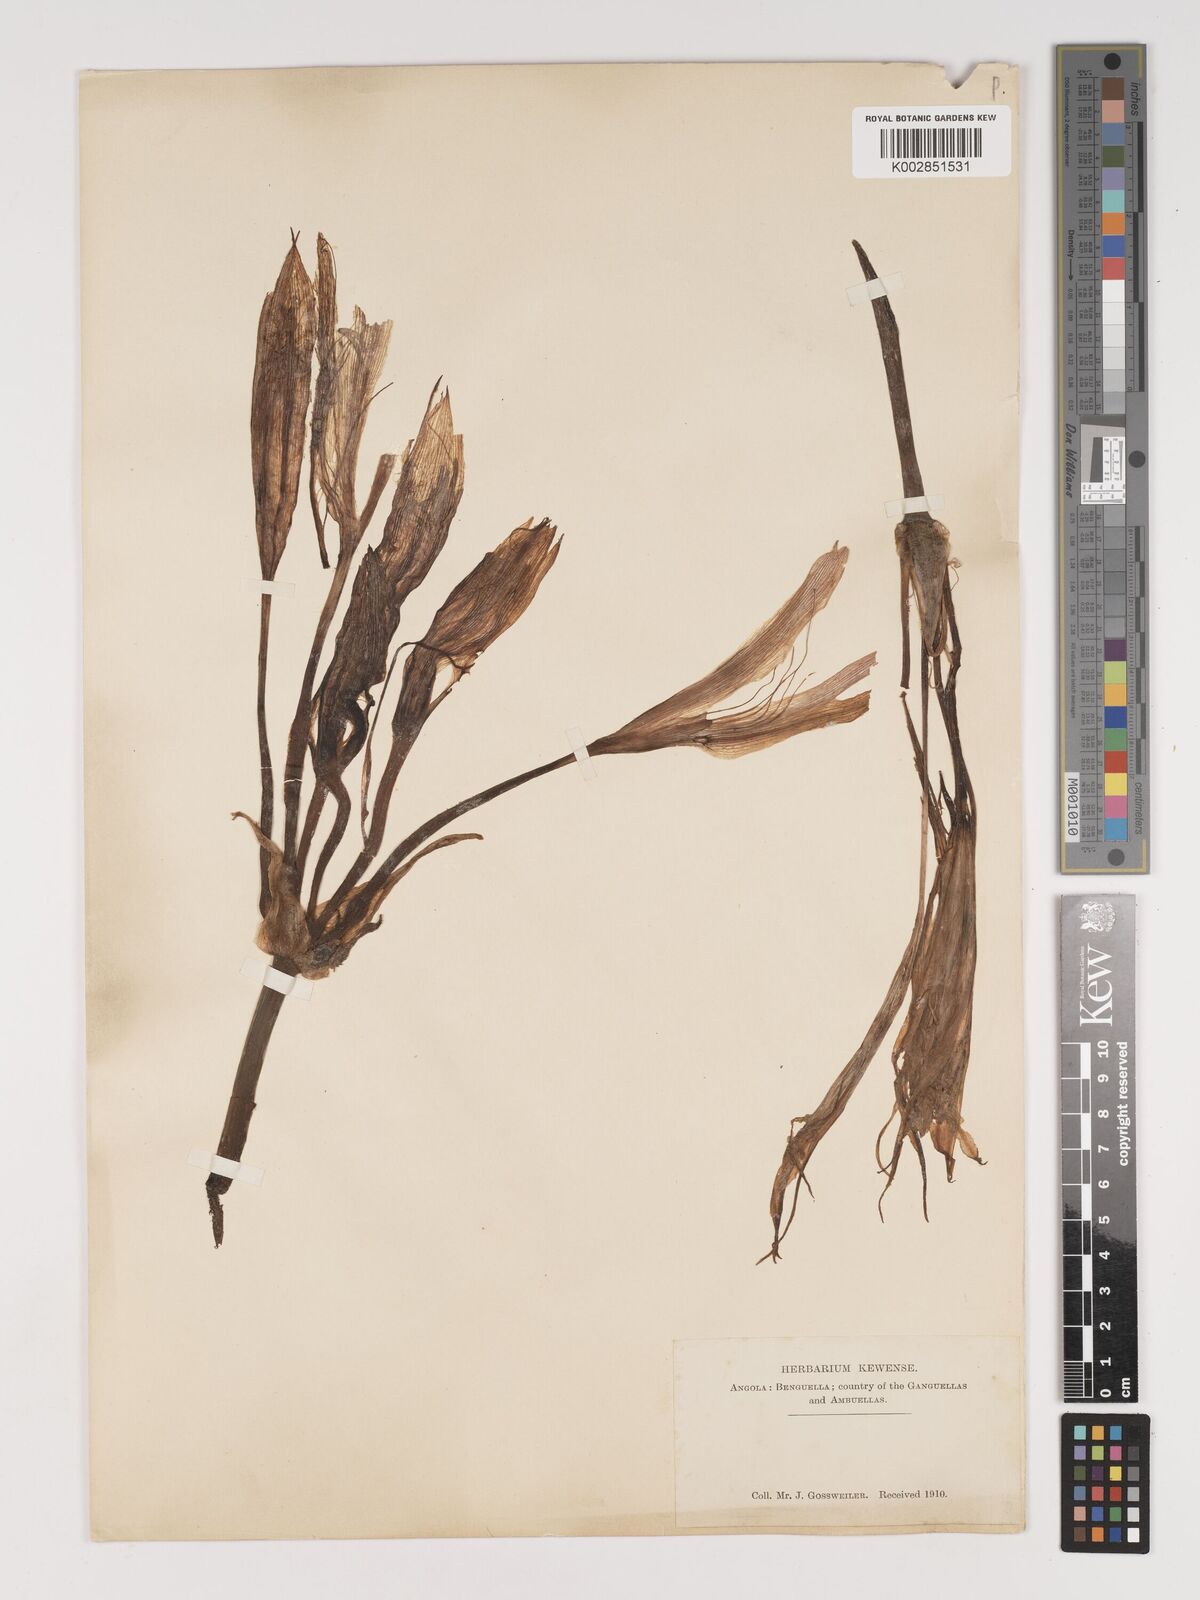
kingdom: Plantae
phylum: Tracheophyta
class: Liliopsida
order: Asparagales
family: Amaryllidaceae
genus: Crinum
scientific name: Crinum crassicaule
